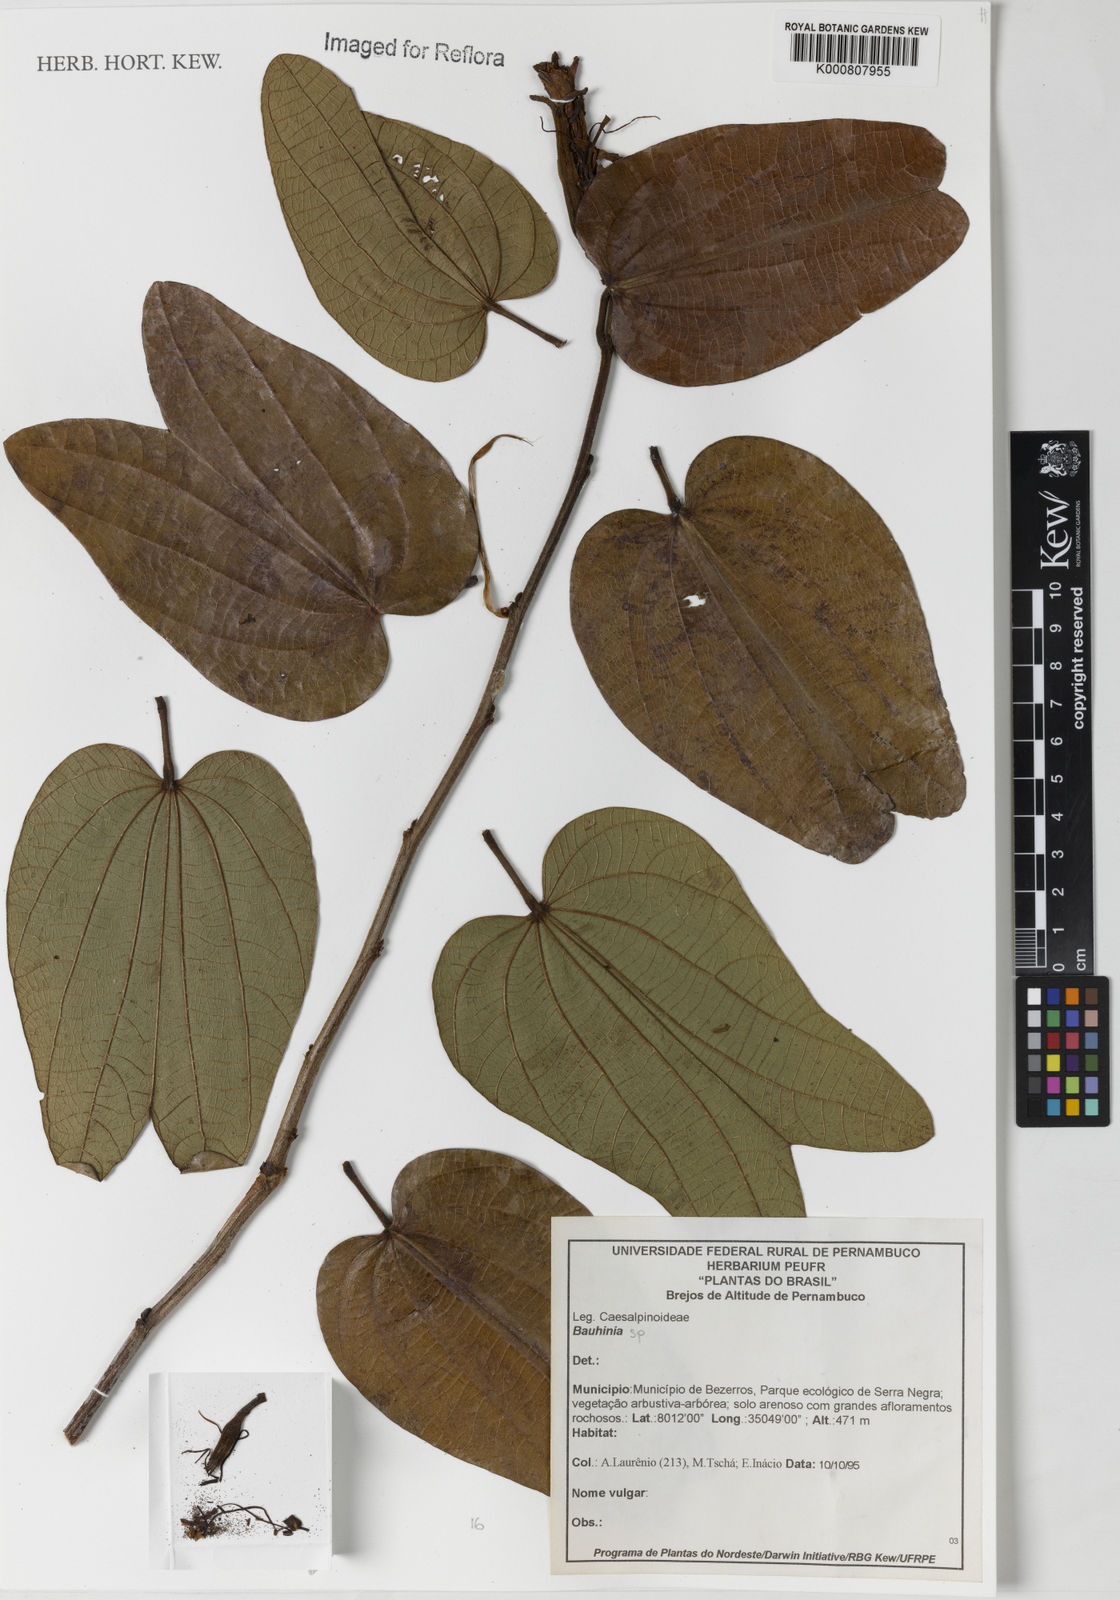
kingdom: Plantae
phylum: Tracheophyta
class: Magnoliopsida
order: Fabales
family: Fabaceae
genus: Bauhinia
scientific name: Bauhinia
